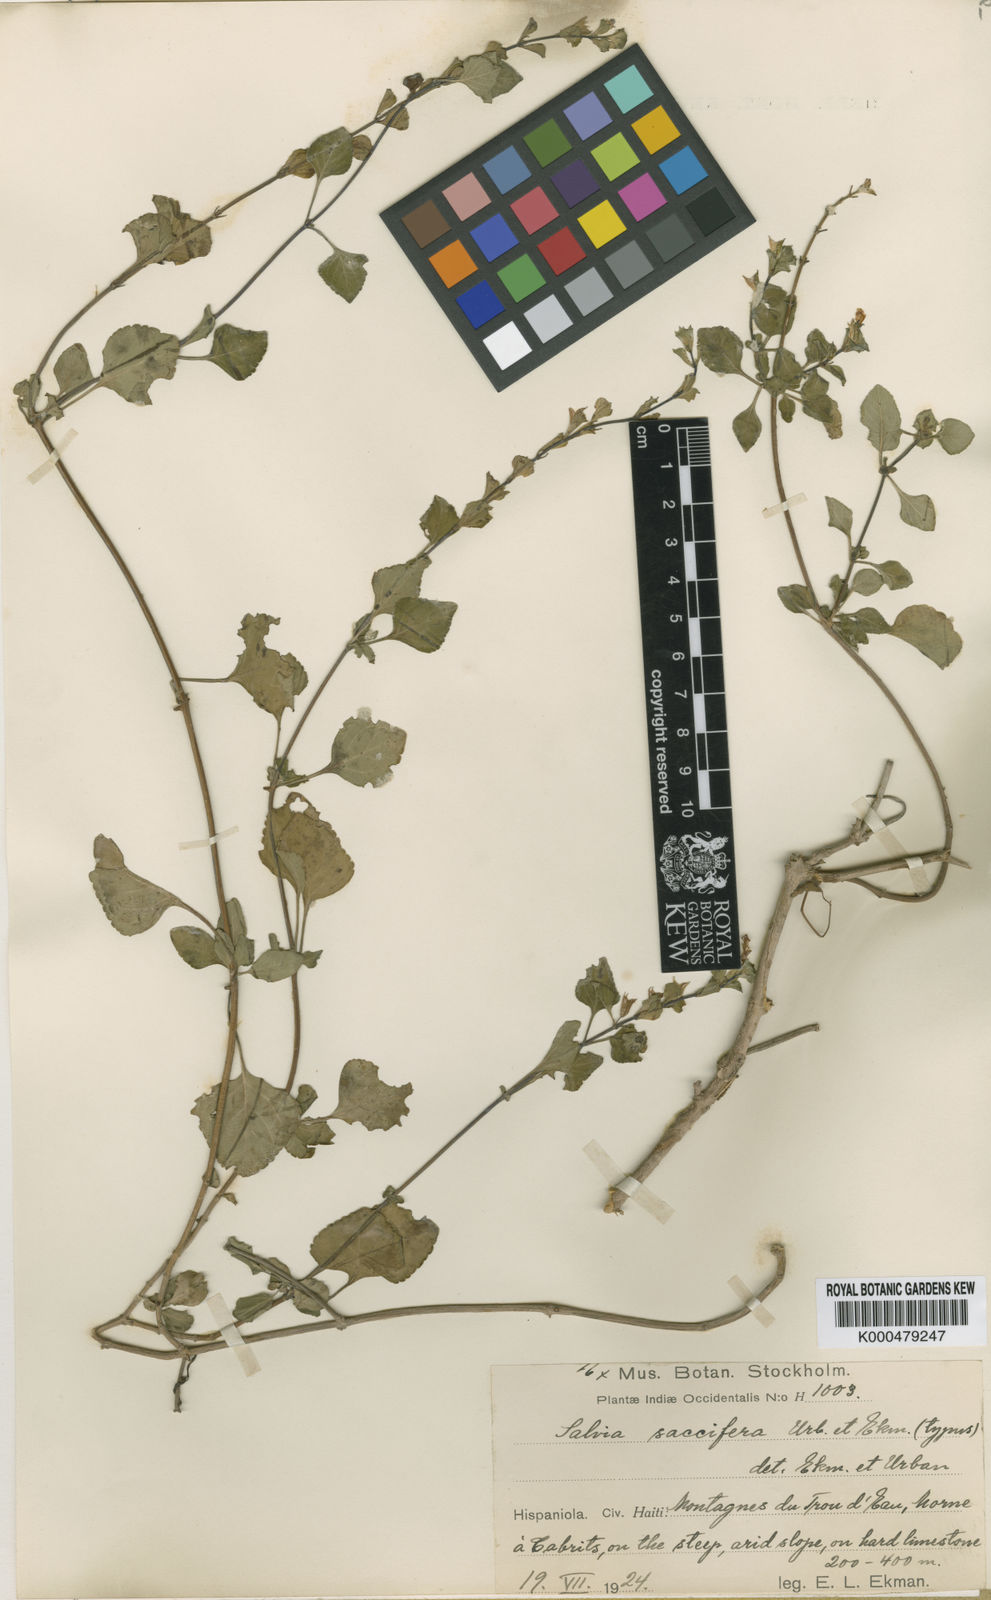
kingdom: Plantae
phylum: Tracheophyta
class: Magnoliopsida
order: Lamiales
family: Lamiaceae
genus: Salvia
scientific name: Salvia saccifera
